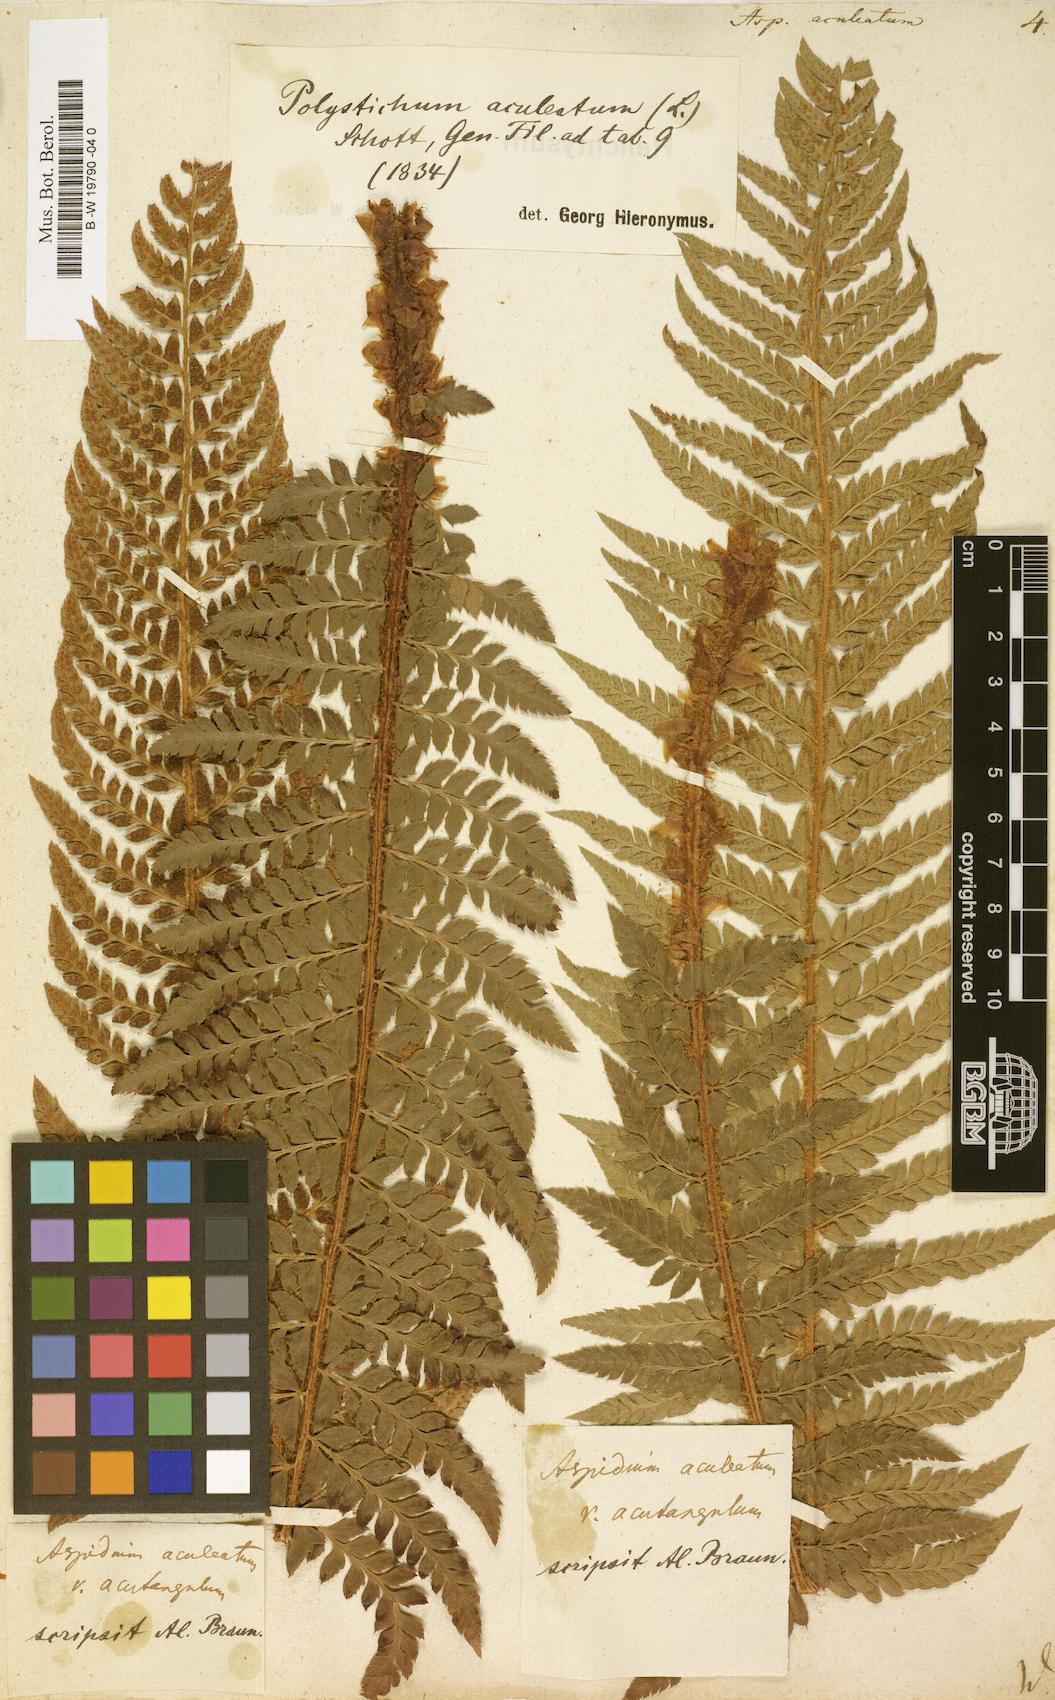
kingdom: Plantae
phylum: Tracheophyta
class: Polypodiopsida
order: Polypodiales
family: Dryopteridaceae
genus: Polystichum
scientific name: Polystichum aculeatum
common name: Hard shield-fern
